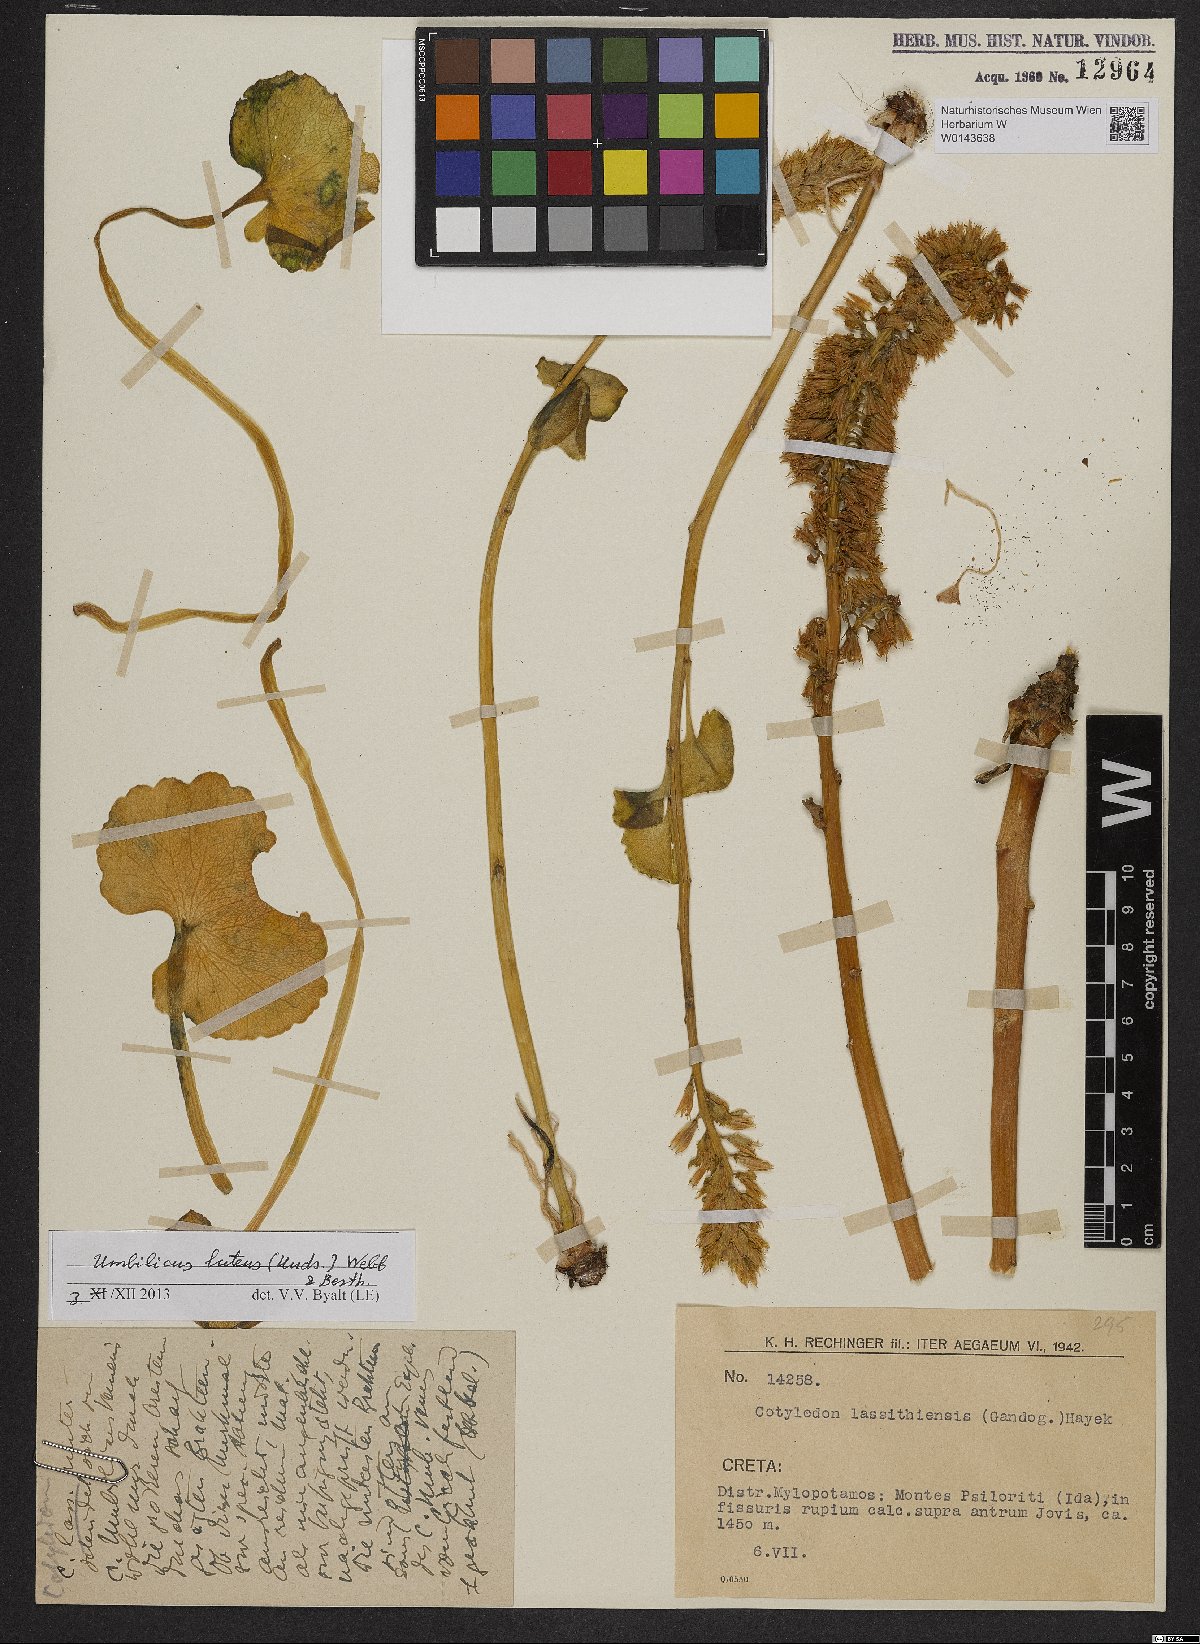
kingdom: Plantae
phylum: Tracheophyta
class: Magnoliopsida
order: Saxifragales
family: Crassulaceae
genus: Umbilicus
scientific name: Umbilicus luteus
